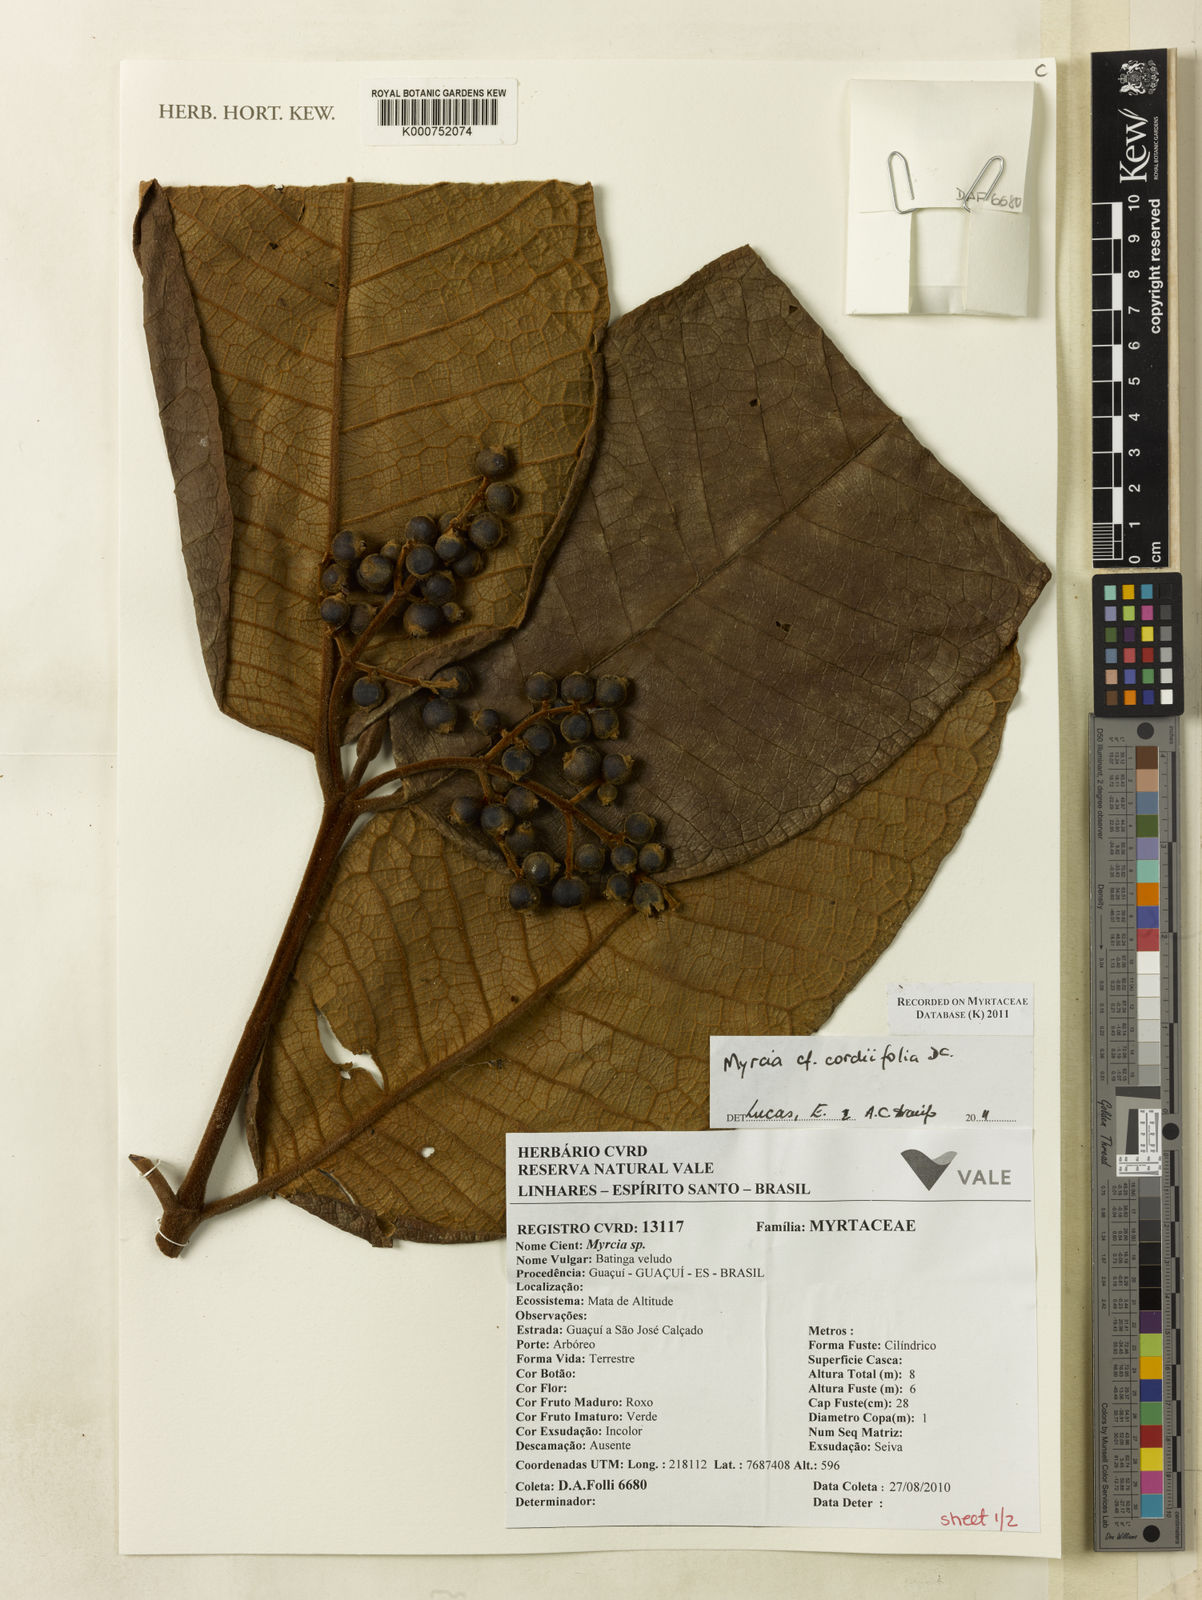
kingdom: Plantae
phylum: Tracheophyta
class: Magnoliopsida
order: Myrtales
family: Myrtaceae
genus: Myrcia
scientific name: Myrcia cordiifolia
